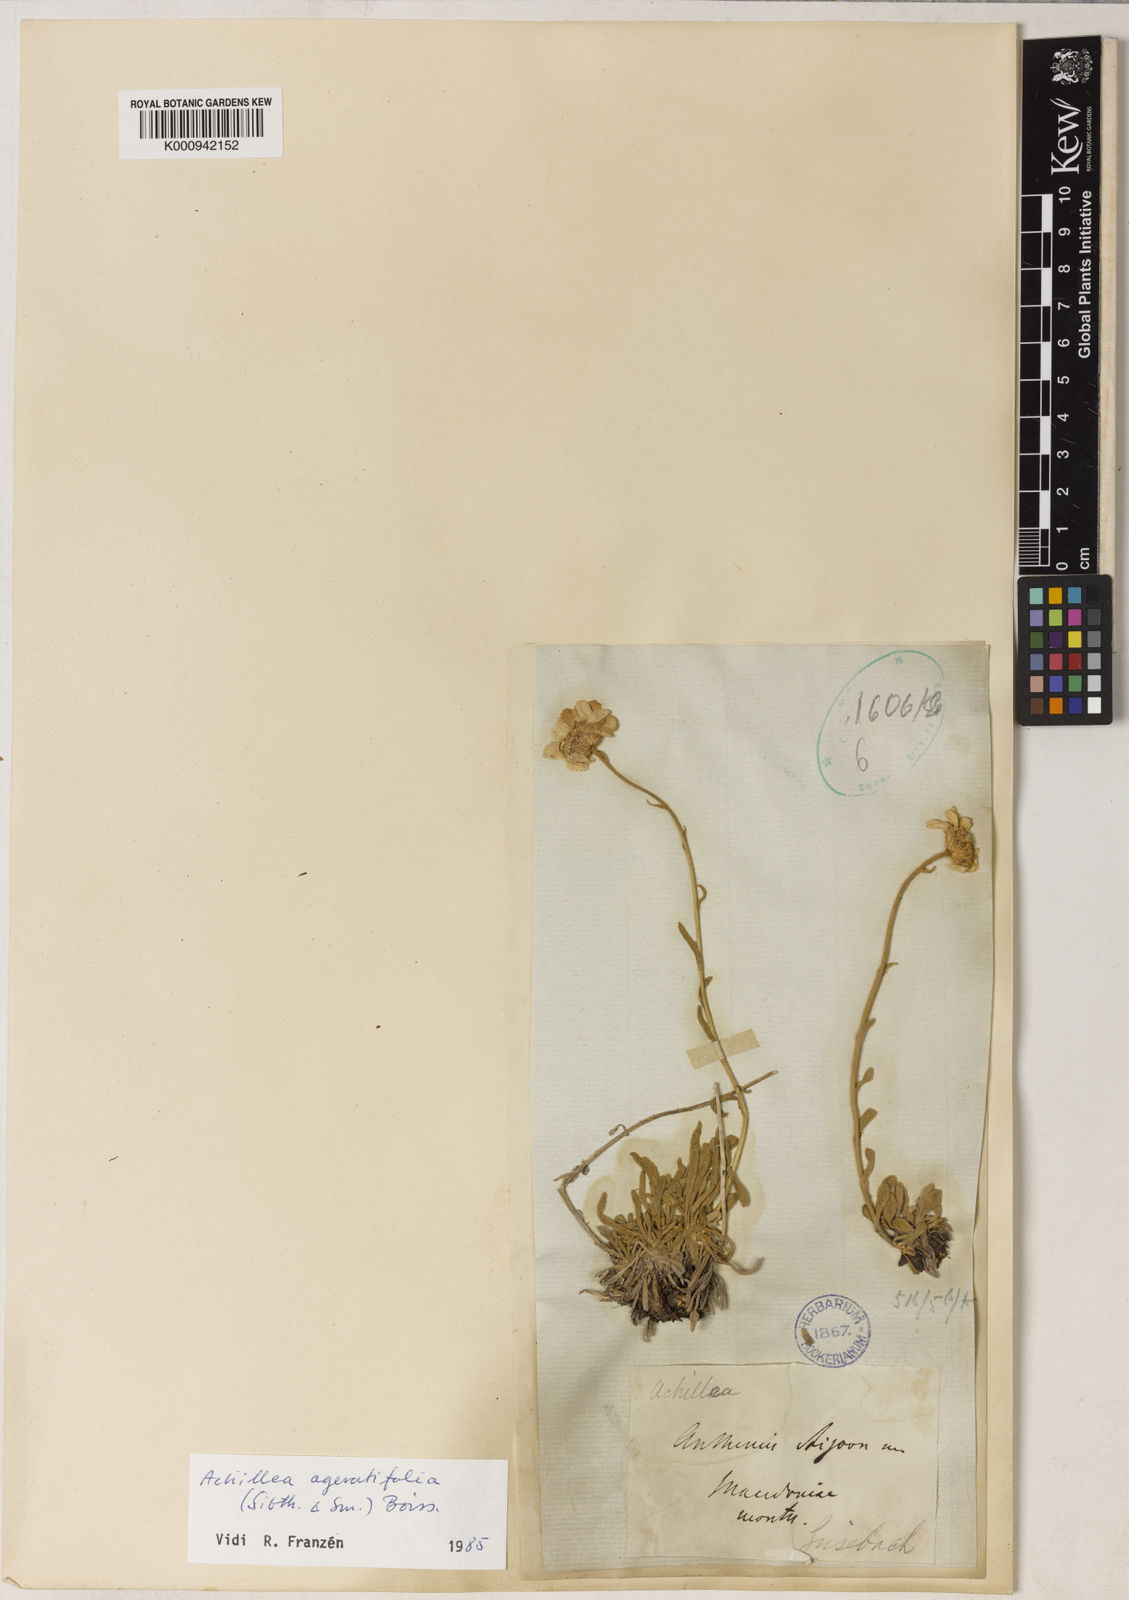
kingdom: Plantae
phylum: Tracheophyta
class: Magnoliopsida
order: Asterales
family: Asteraceae
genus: Achillea
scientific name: Achillea
